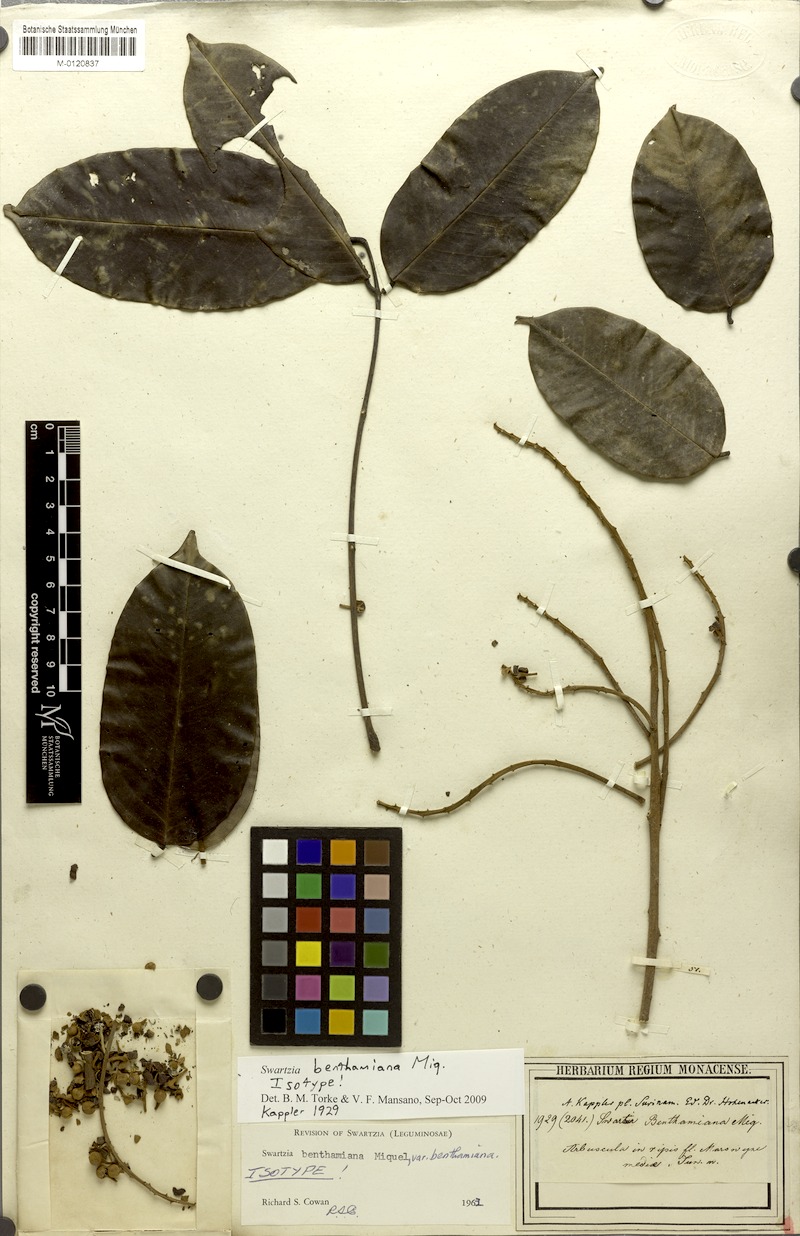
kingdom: Plantae
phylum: Tracheophyta
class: Magnoliopsida
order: Fabales
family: Fabaceae
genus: Swartzia
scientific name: Swartzia benthamiana
